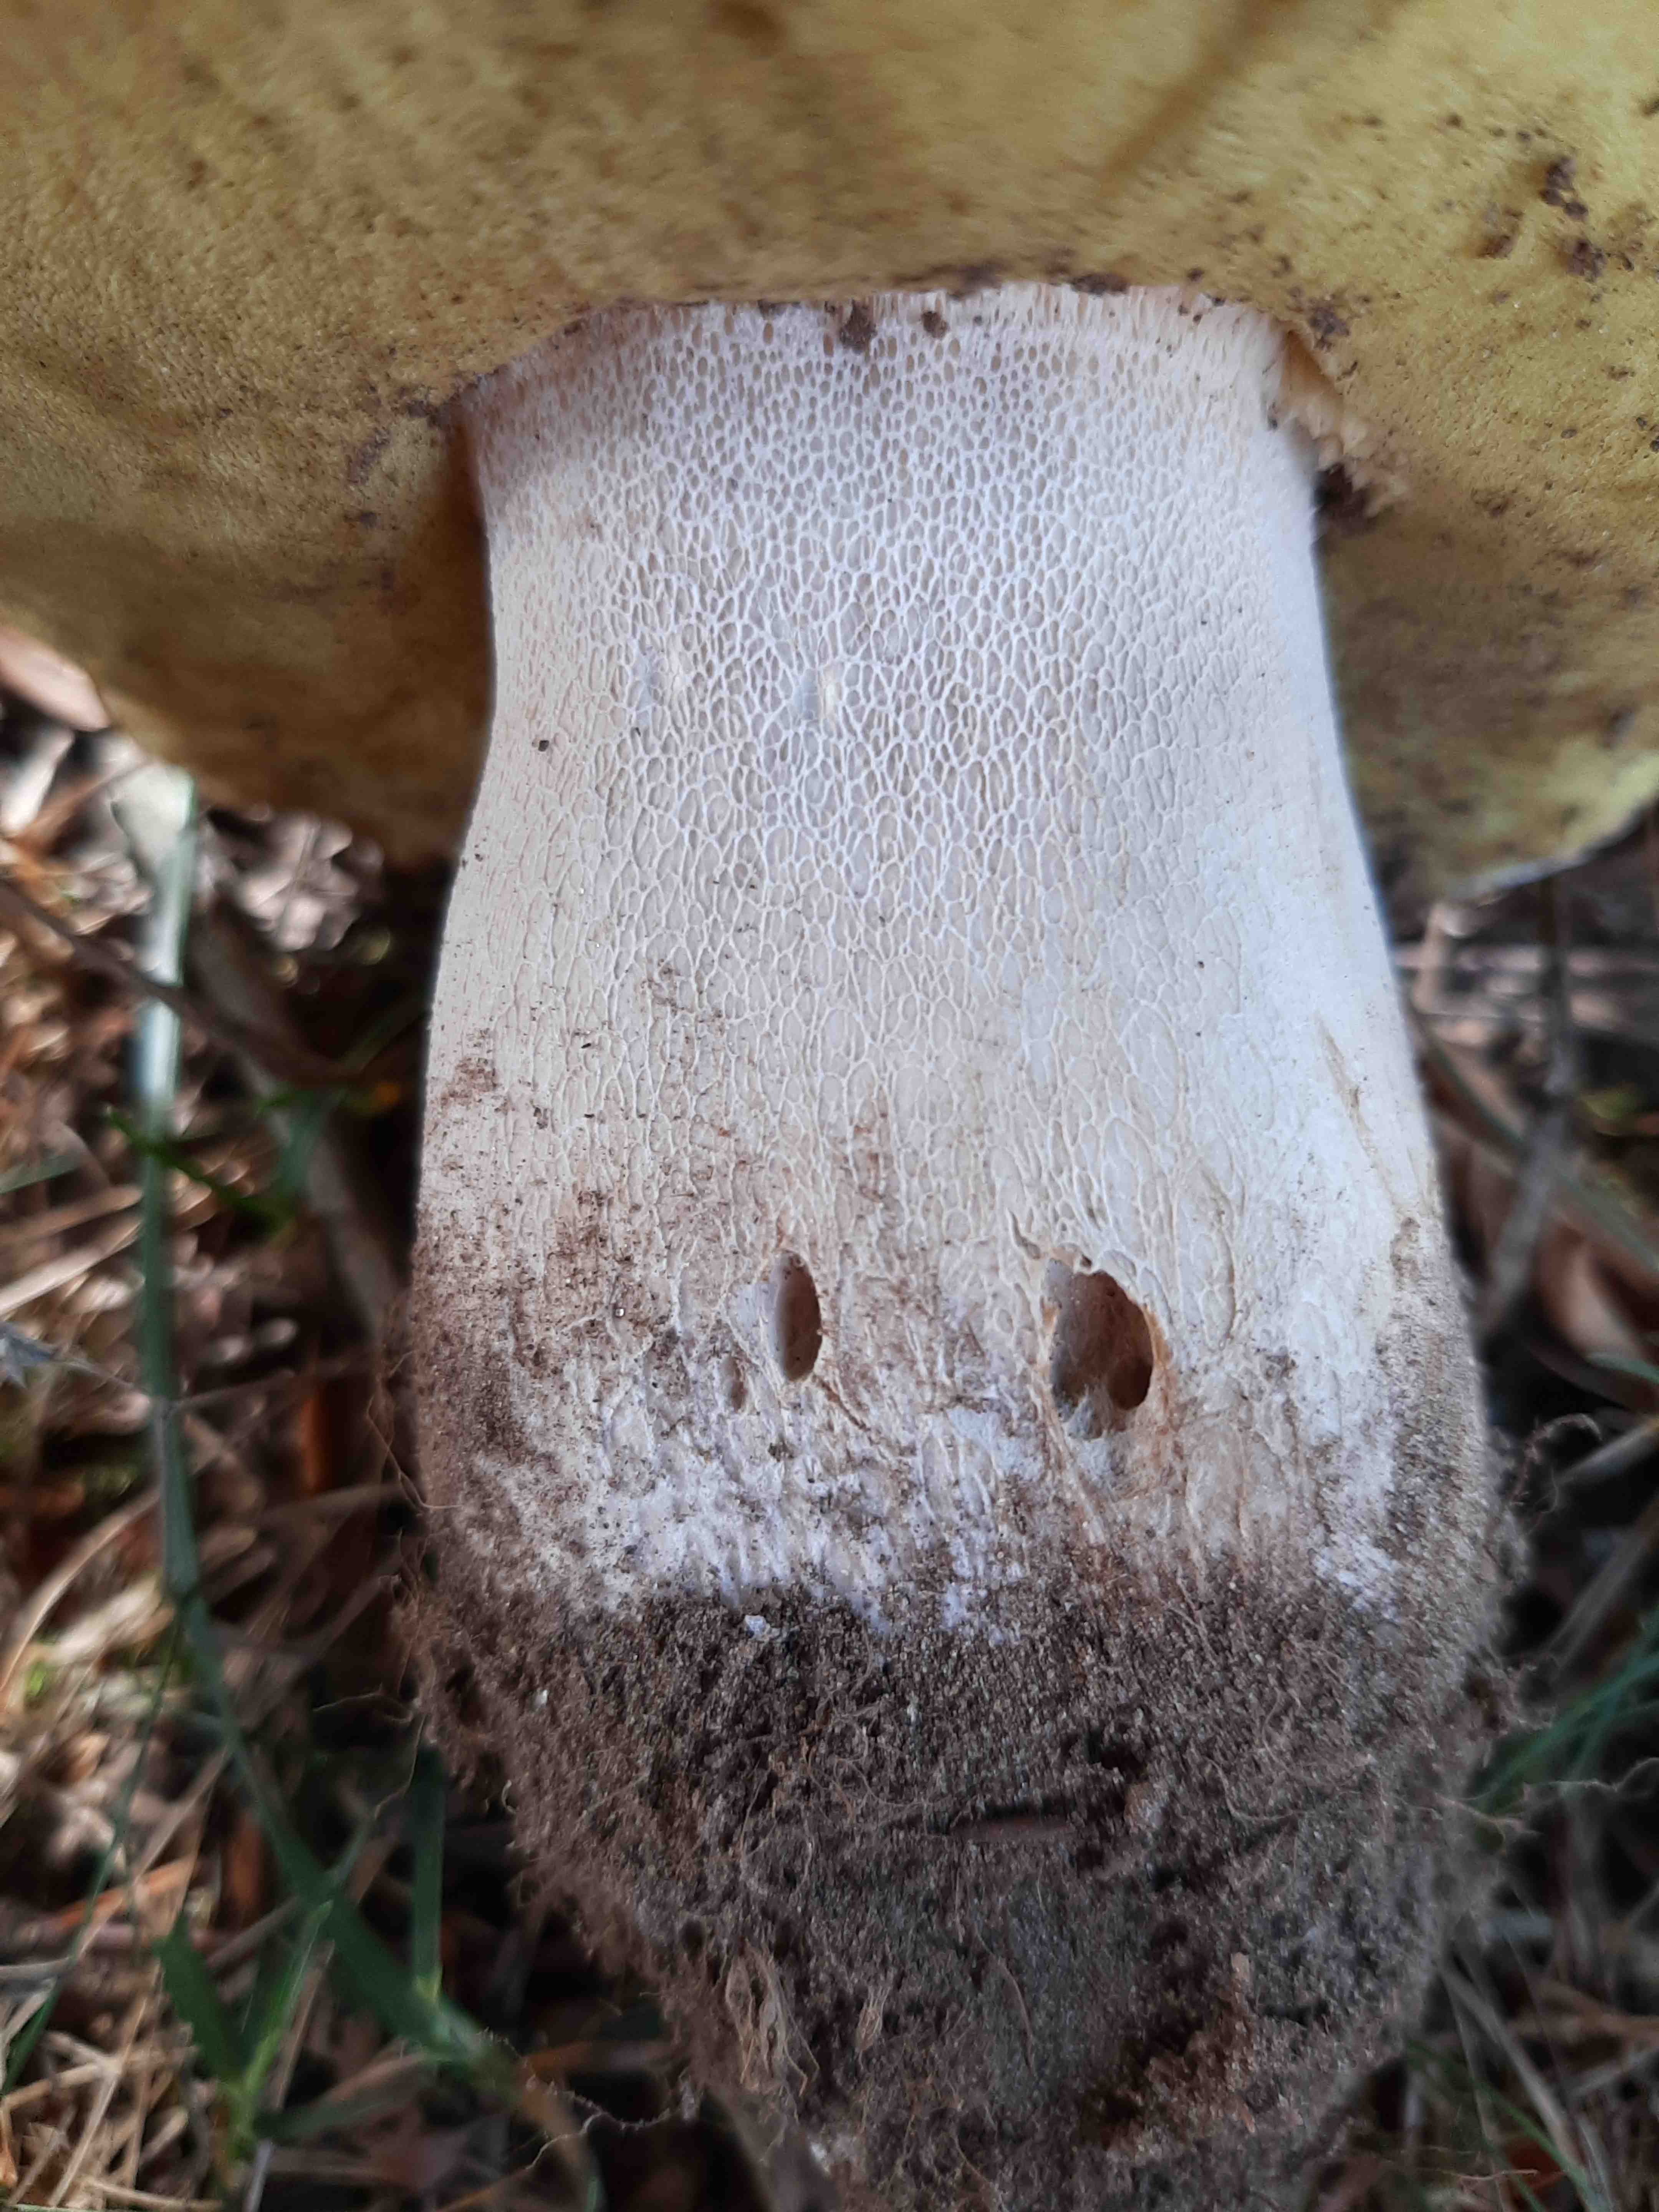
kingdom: Fungi
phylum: Basidiomycota
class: Agaricomycetes
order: Boletales
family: Boletaceae
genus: Boletus
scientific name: Boletus edulis
